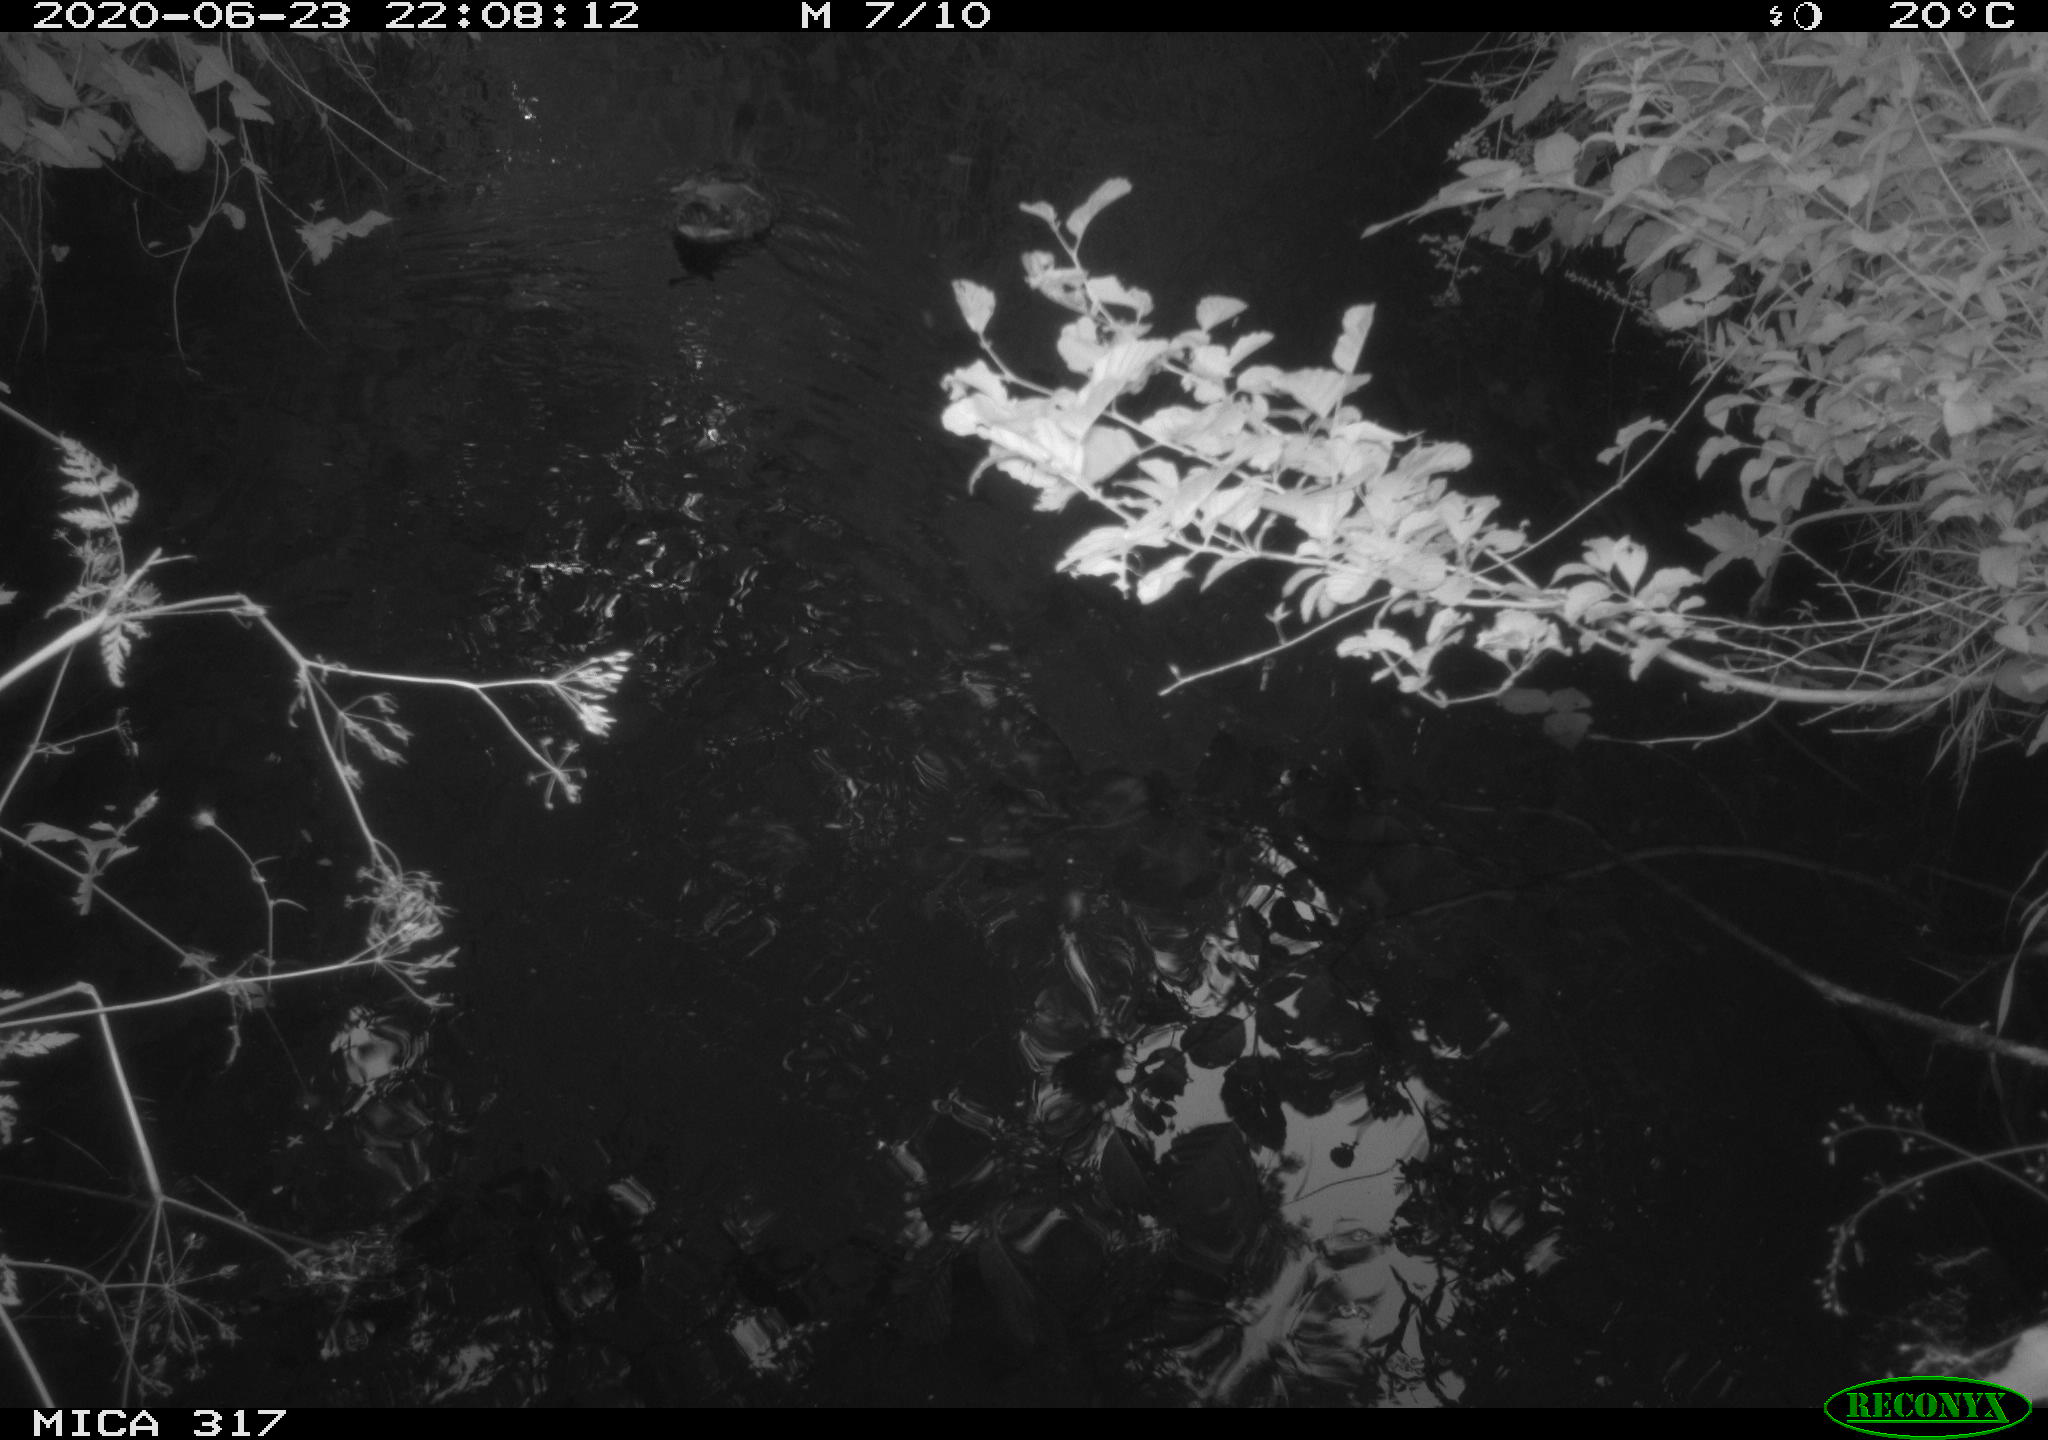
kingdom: Animalia
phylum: Chordata
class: Aves
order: Anseriformes
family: Anatidae
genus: Anas
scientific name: Anas platyrhynchos
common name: Mallard
